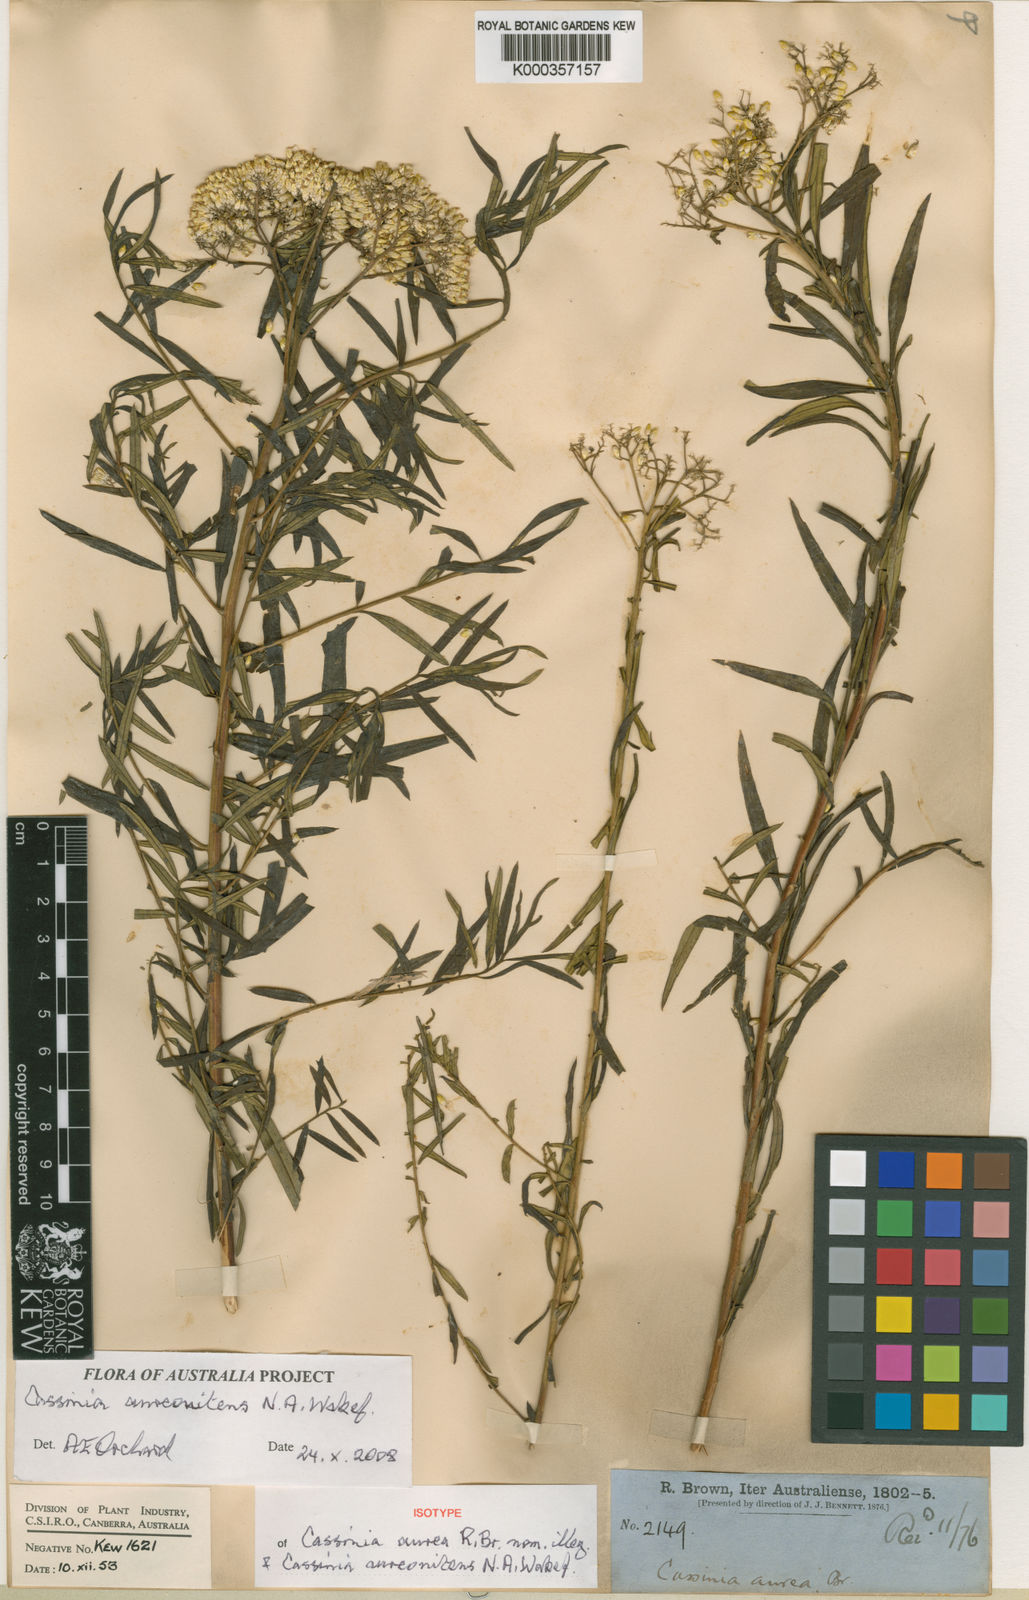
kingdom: Plantae
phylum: Tracheophyta
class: Magnoliopsida
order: Asterales
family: Asteraceae
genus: Cassinia
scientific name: Cassinia aureonitens
